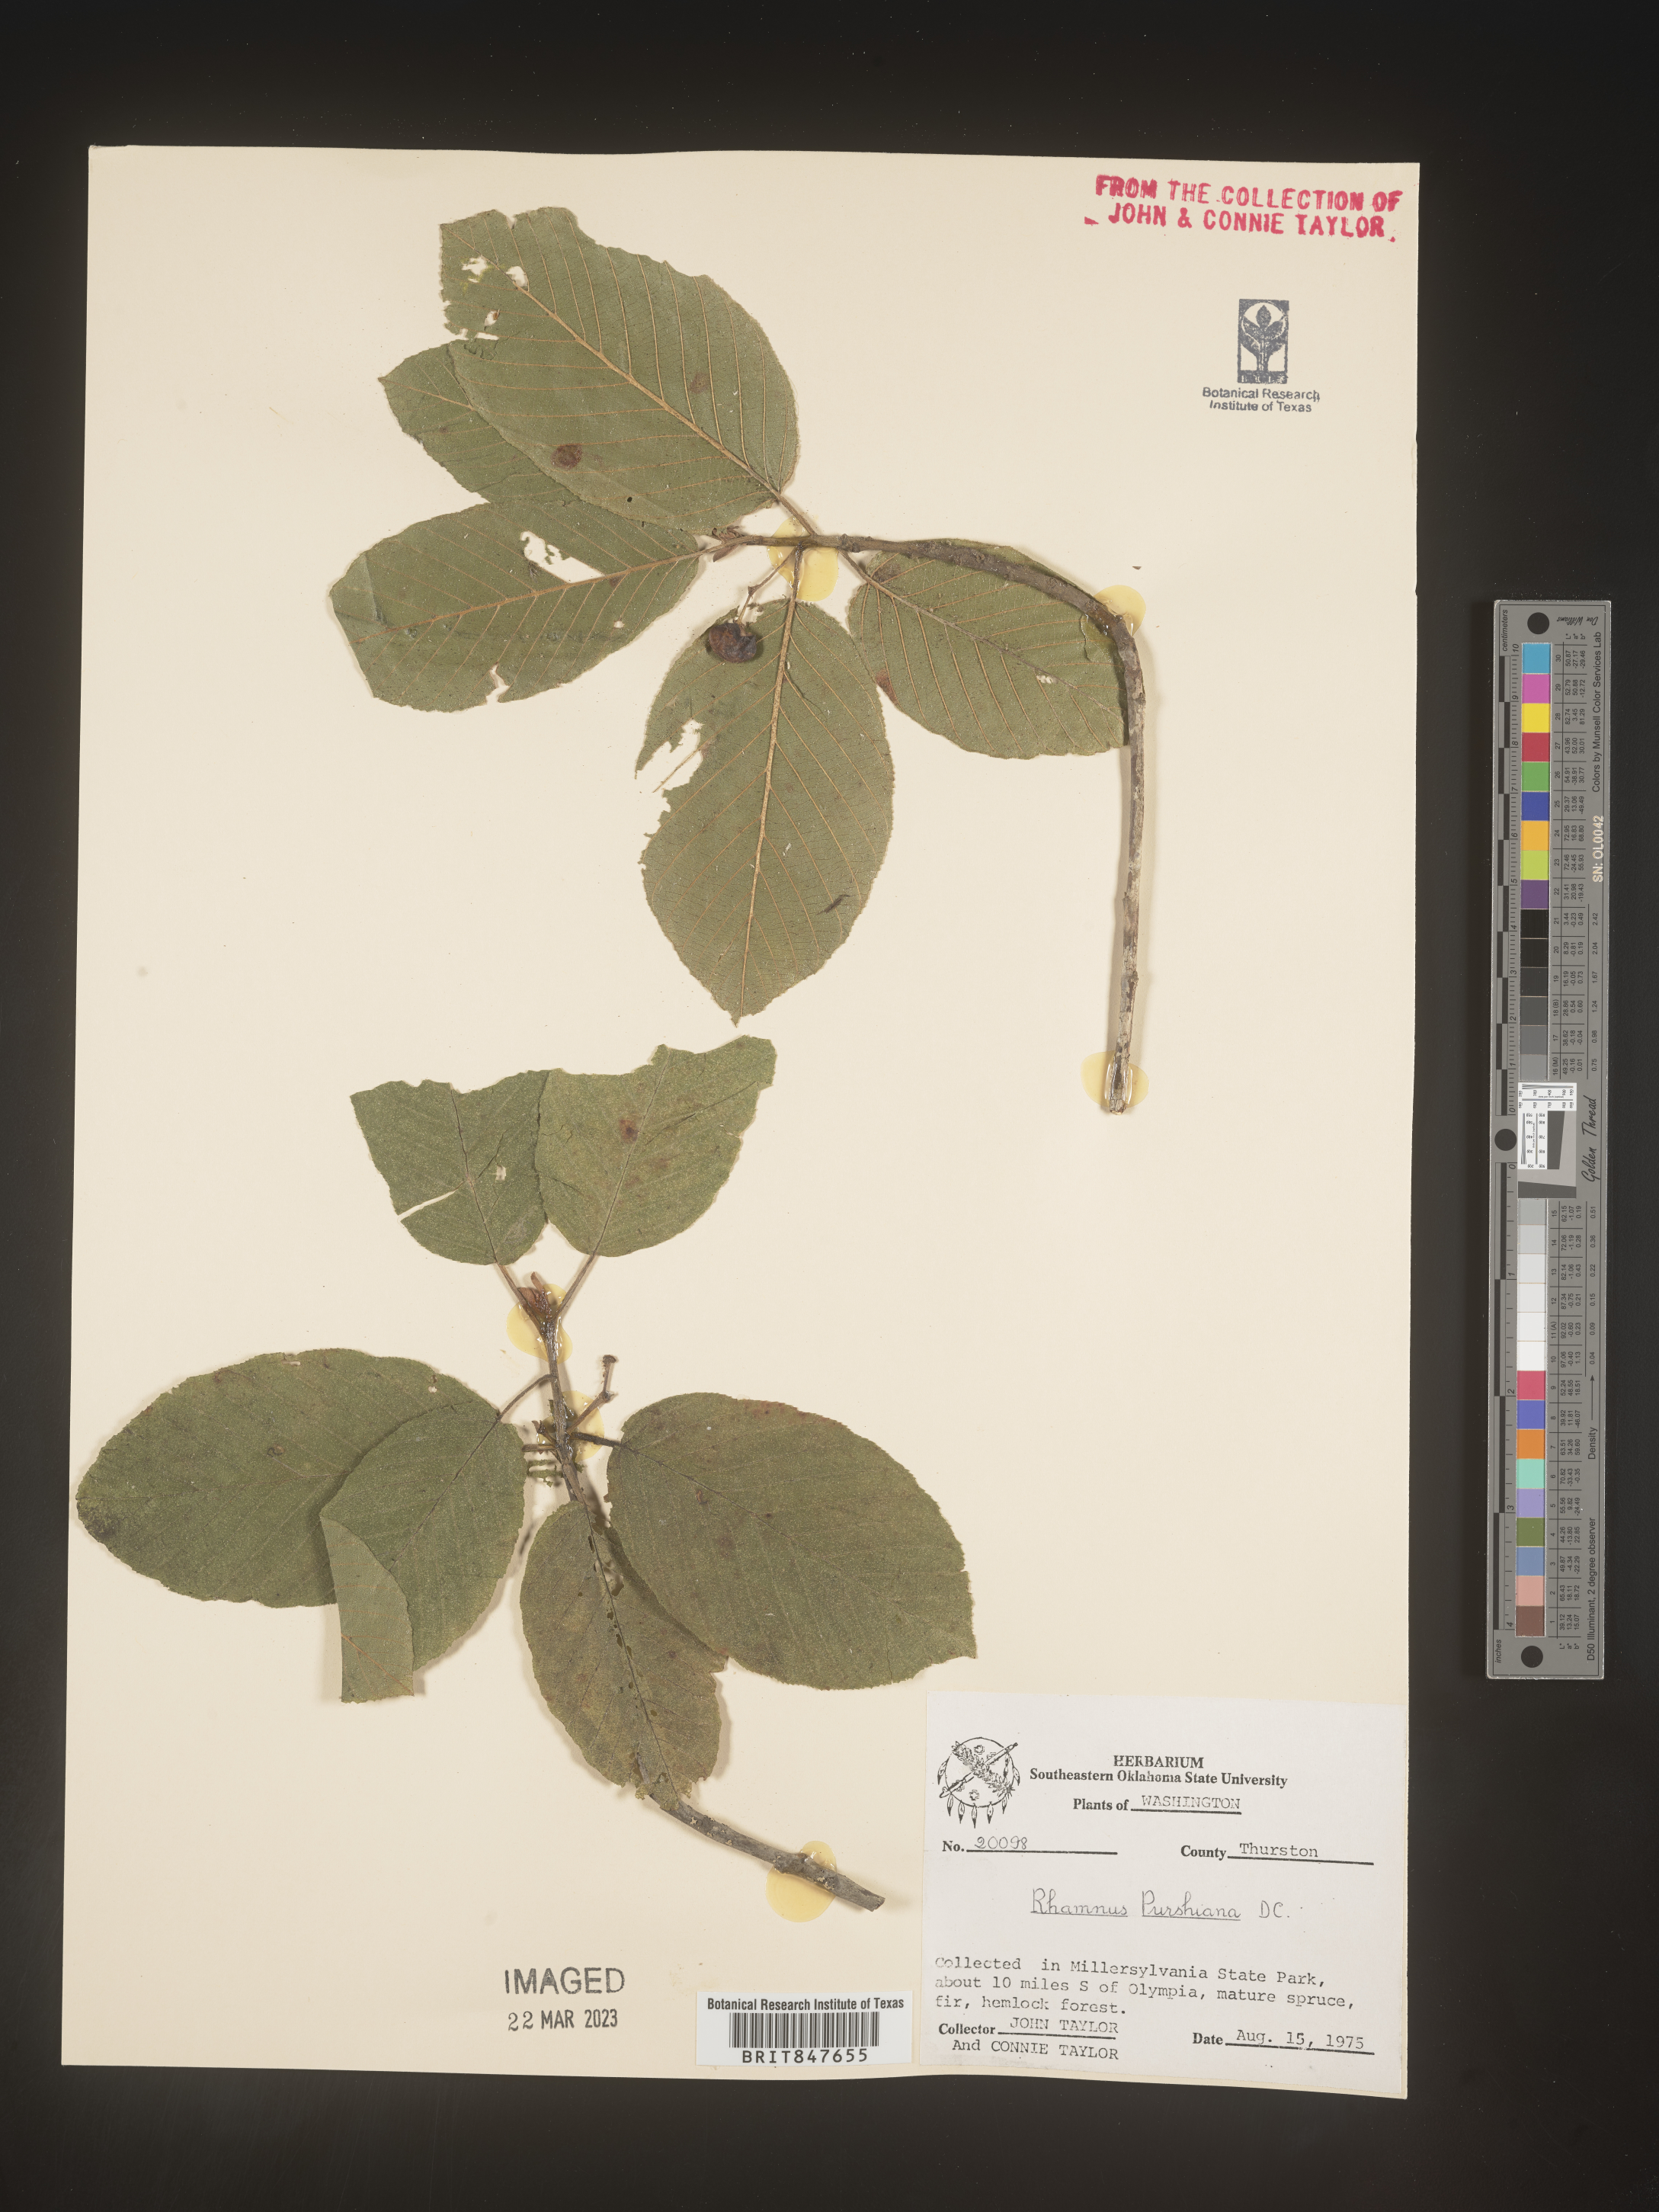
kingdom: Plantae
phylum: Tracheophyta
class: Magnoliopsida
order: Rosales
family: Rhamnaceae
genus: Frangula
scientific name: Frangula purshiana
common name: Cascara buckthorn
